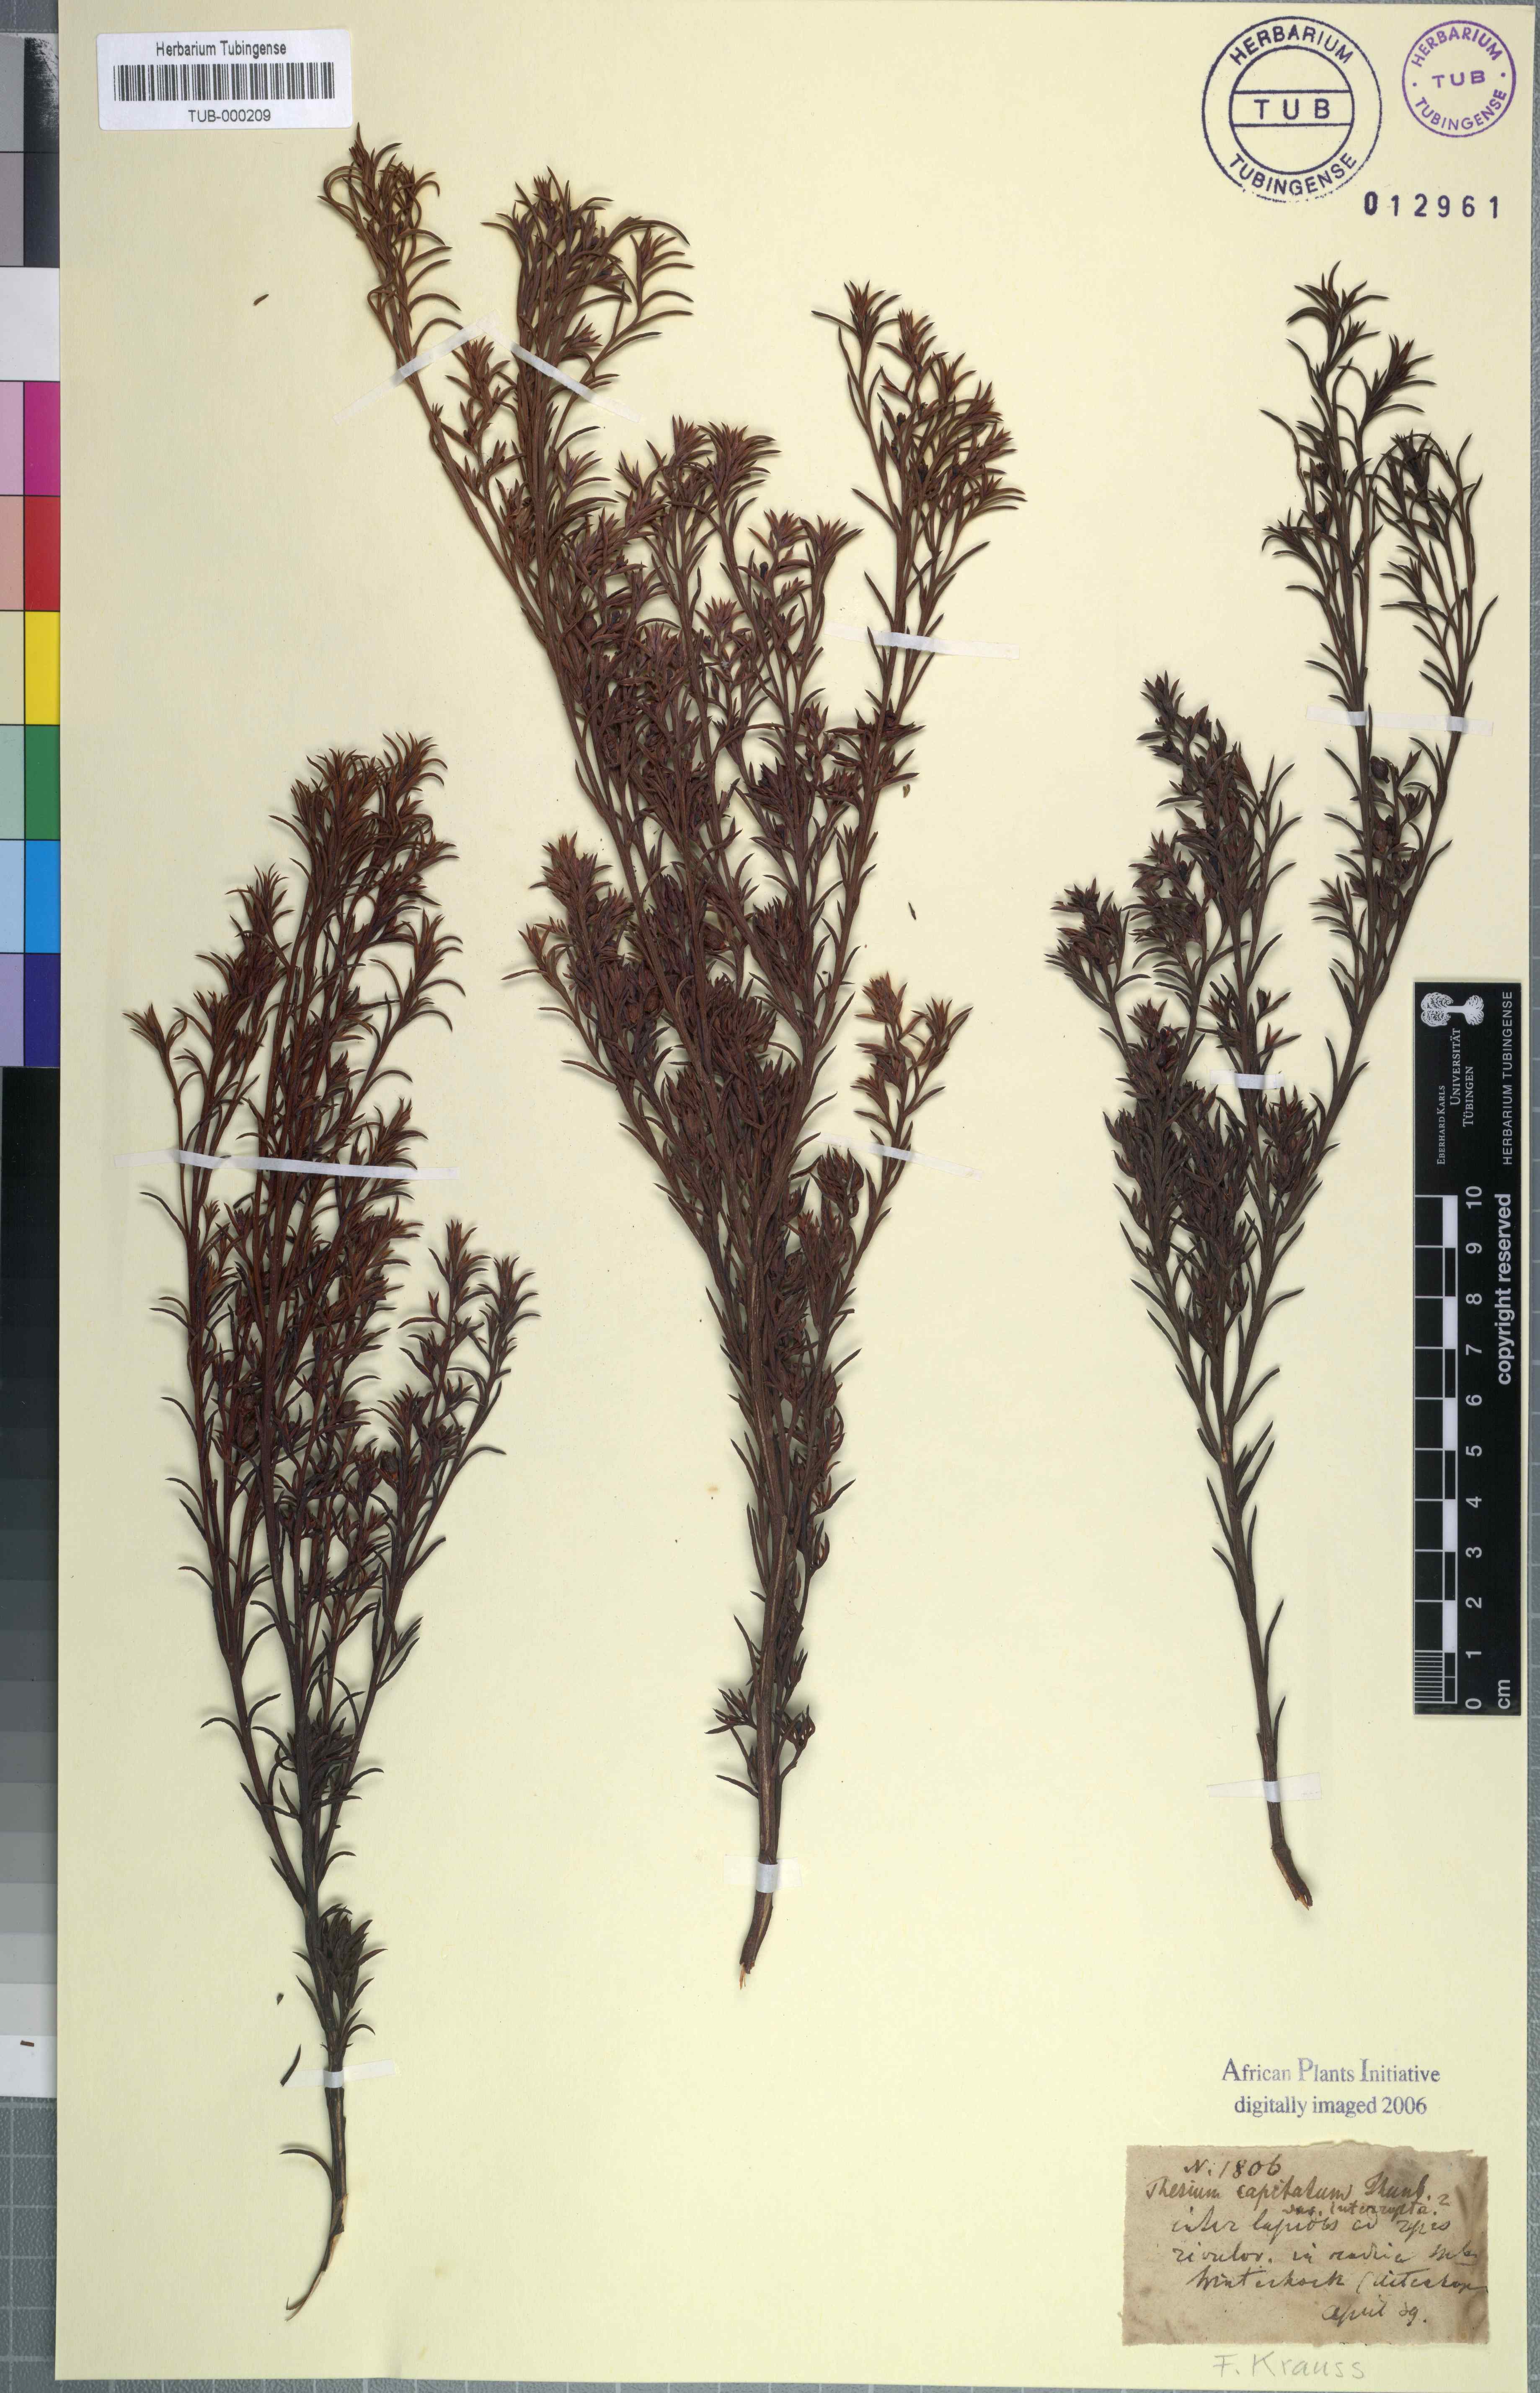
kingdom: Plantae
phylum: Tracheophyta
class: Magnoliopsida
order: Santalales
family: Thesiaceae
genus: Thesium
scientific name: Thesium capitatum
